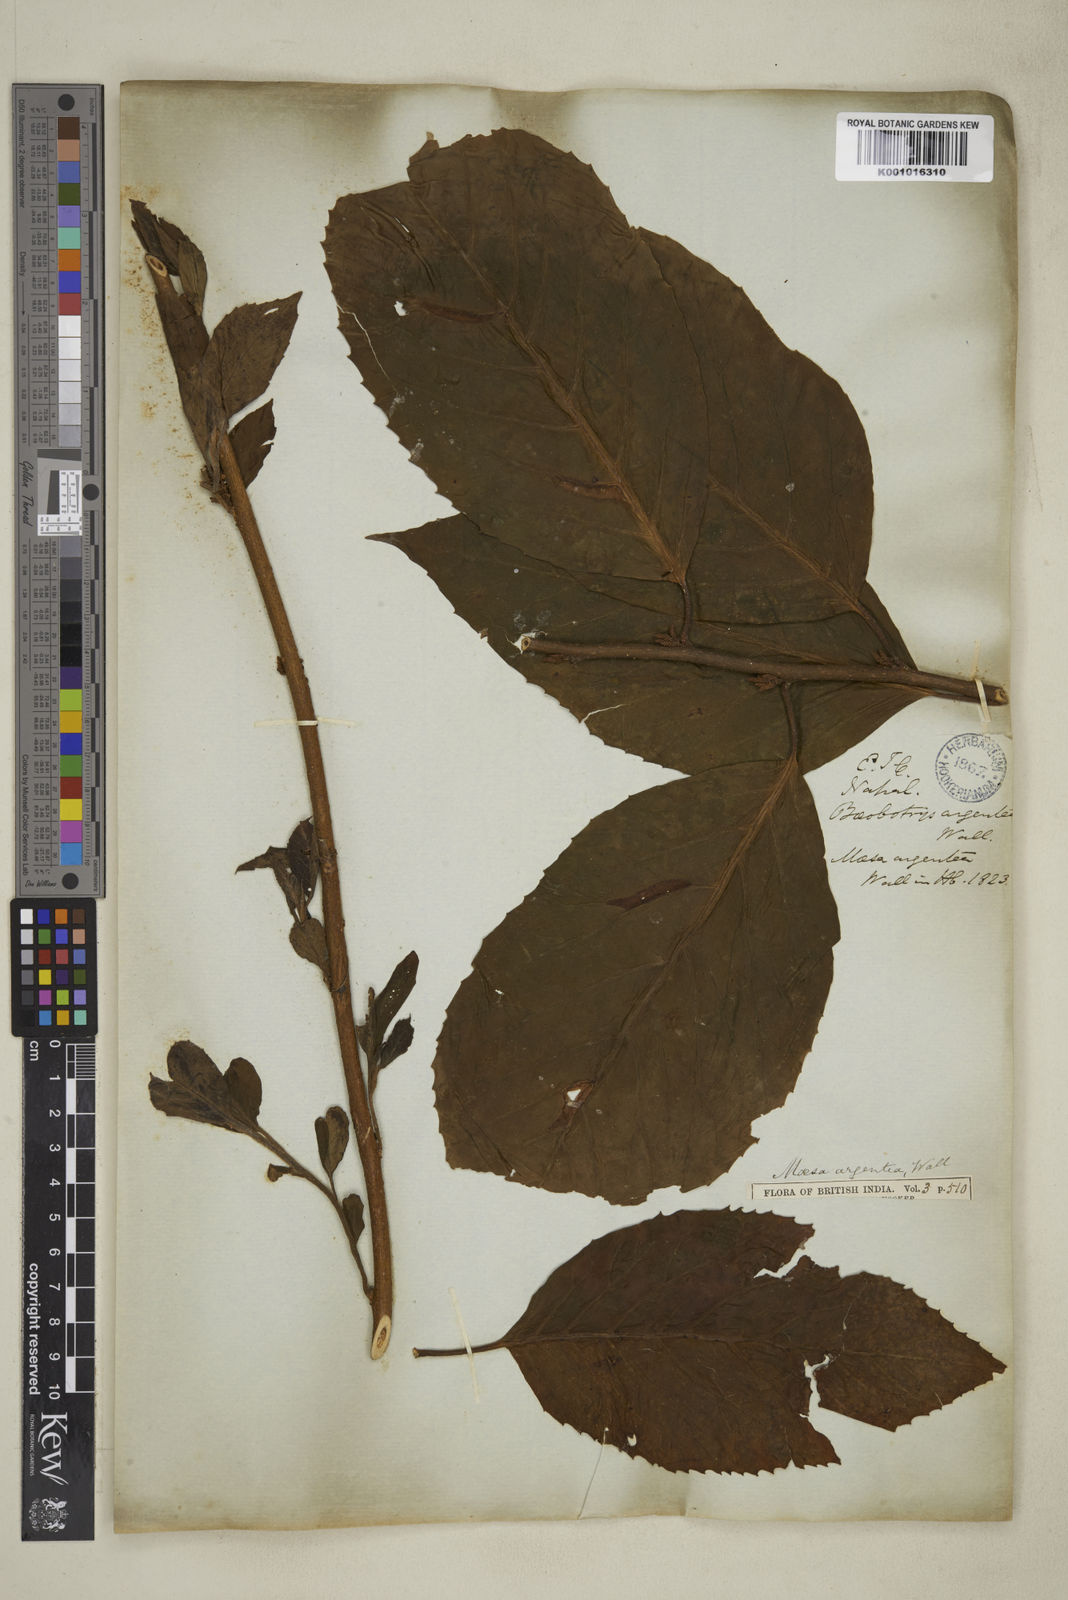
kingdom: Plantae
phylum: Tracheophyta
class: Magnoliopsida
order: Lamiales
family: Lamiaceae
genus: Clerodendrum
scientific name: Clerodendrum phlomidis
